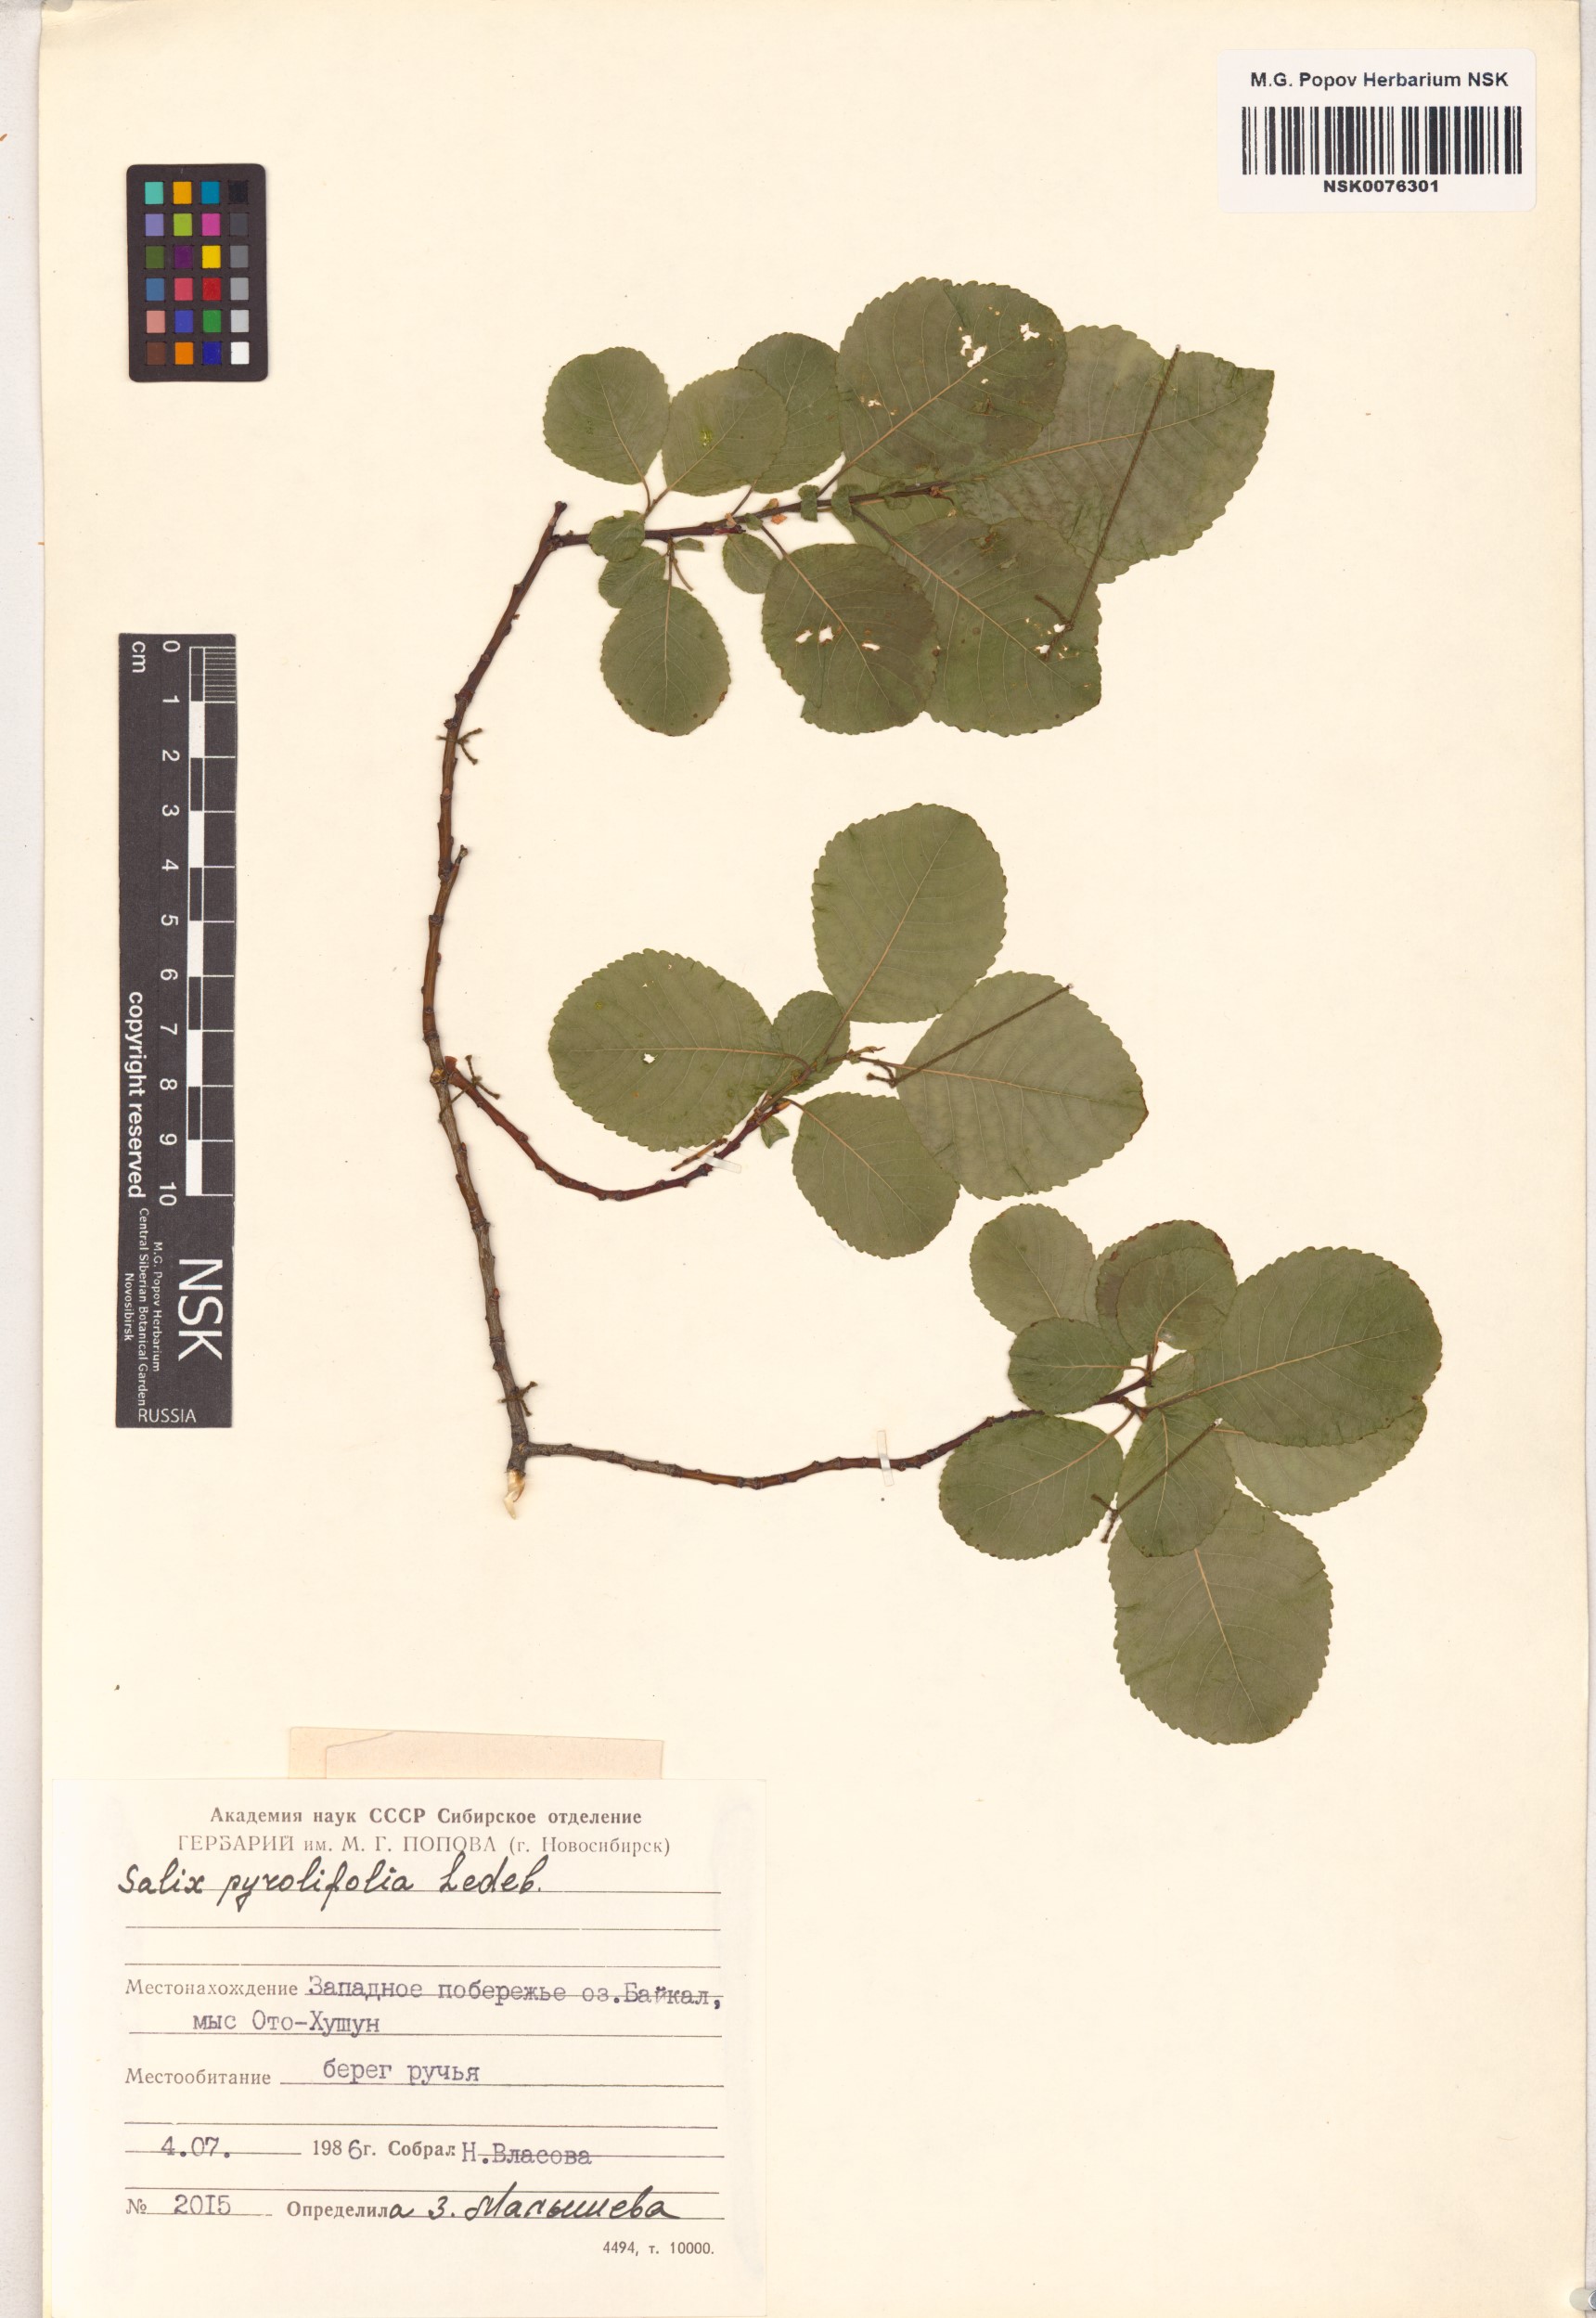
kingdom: Plantae
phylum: Tracheophyta
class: Magnoliopsida
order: Malpighiales
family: Salicaceae
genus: Salix
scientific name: Salix pyrolifolia
